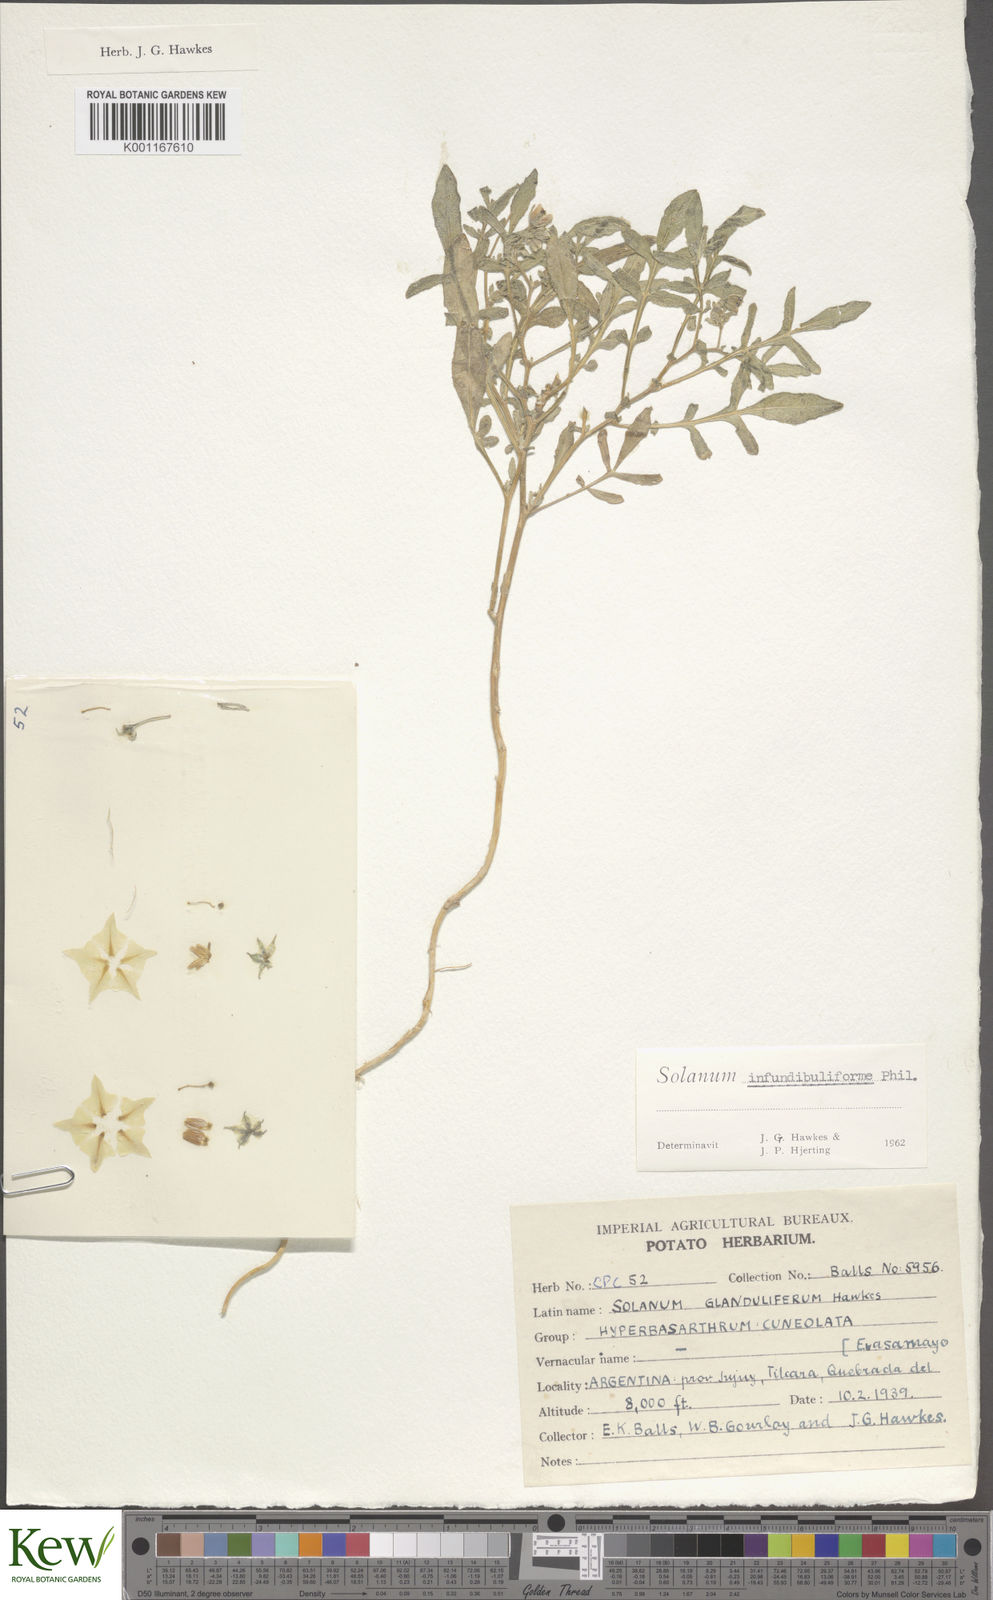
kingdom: Plantae
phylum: Tracheophyta
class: Magnoliopsida
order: Solanales
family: Solanaceae
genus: Solanum
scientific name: Solanum infundibuliforme
